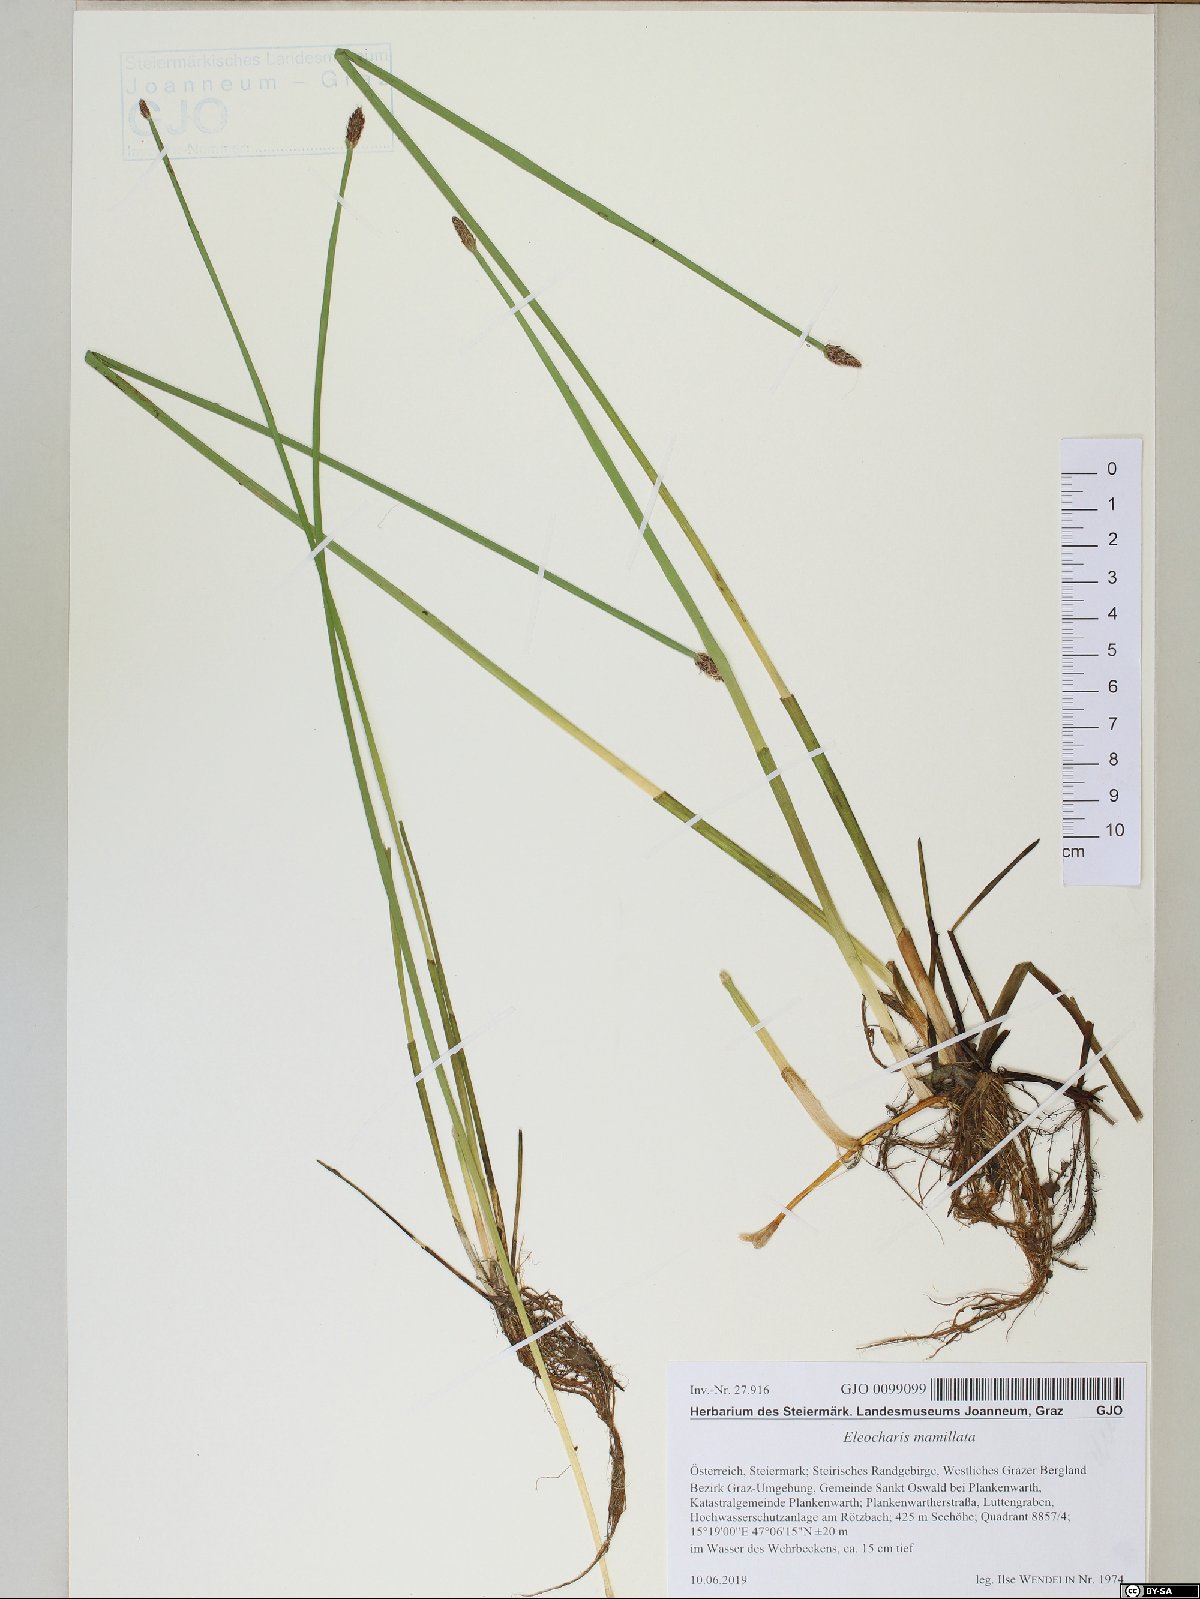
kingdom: Plantae
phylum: Tracheophyta
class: Liliopsida
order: Poales
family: Cyperaceae
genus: Eleocharis
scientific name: Eleocharis mamillata
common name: Northern spike-rush
